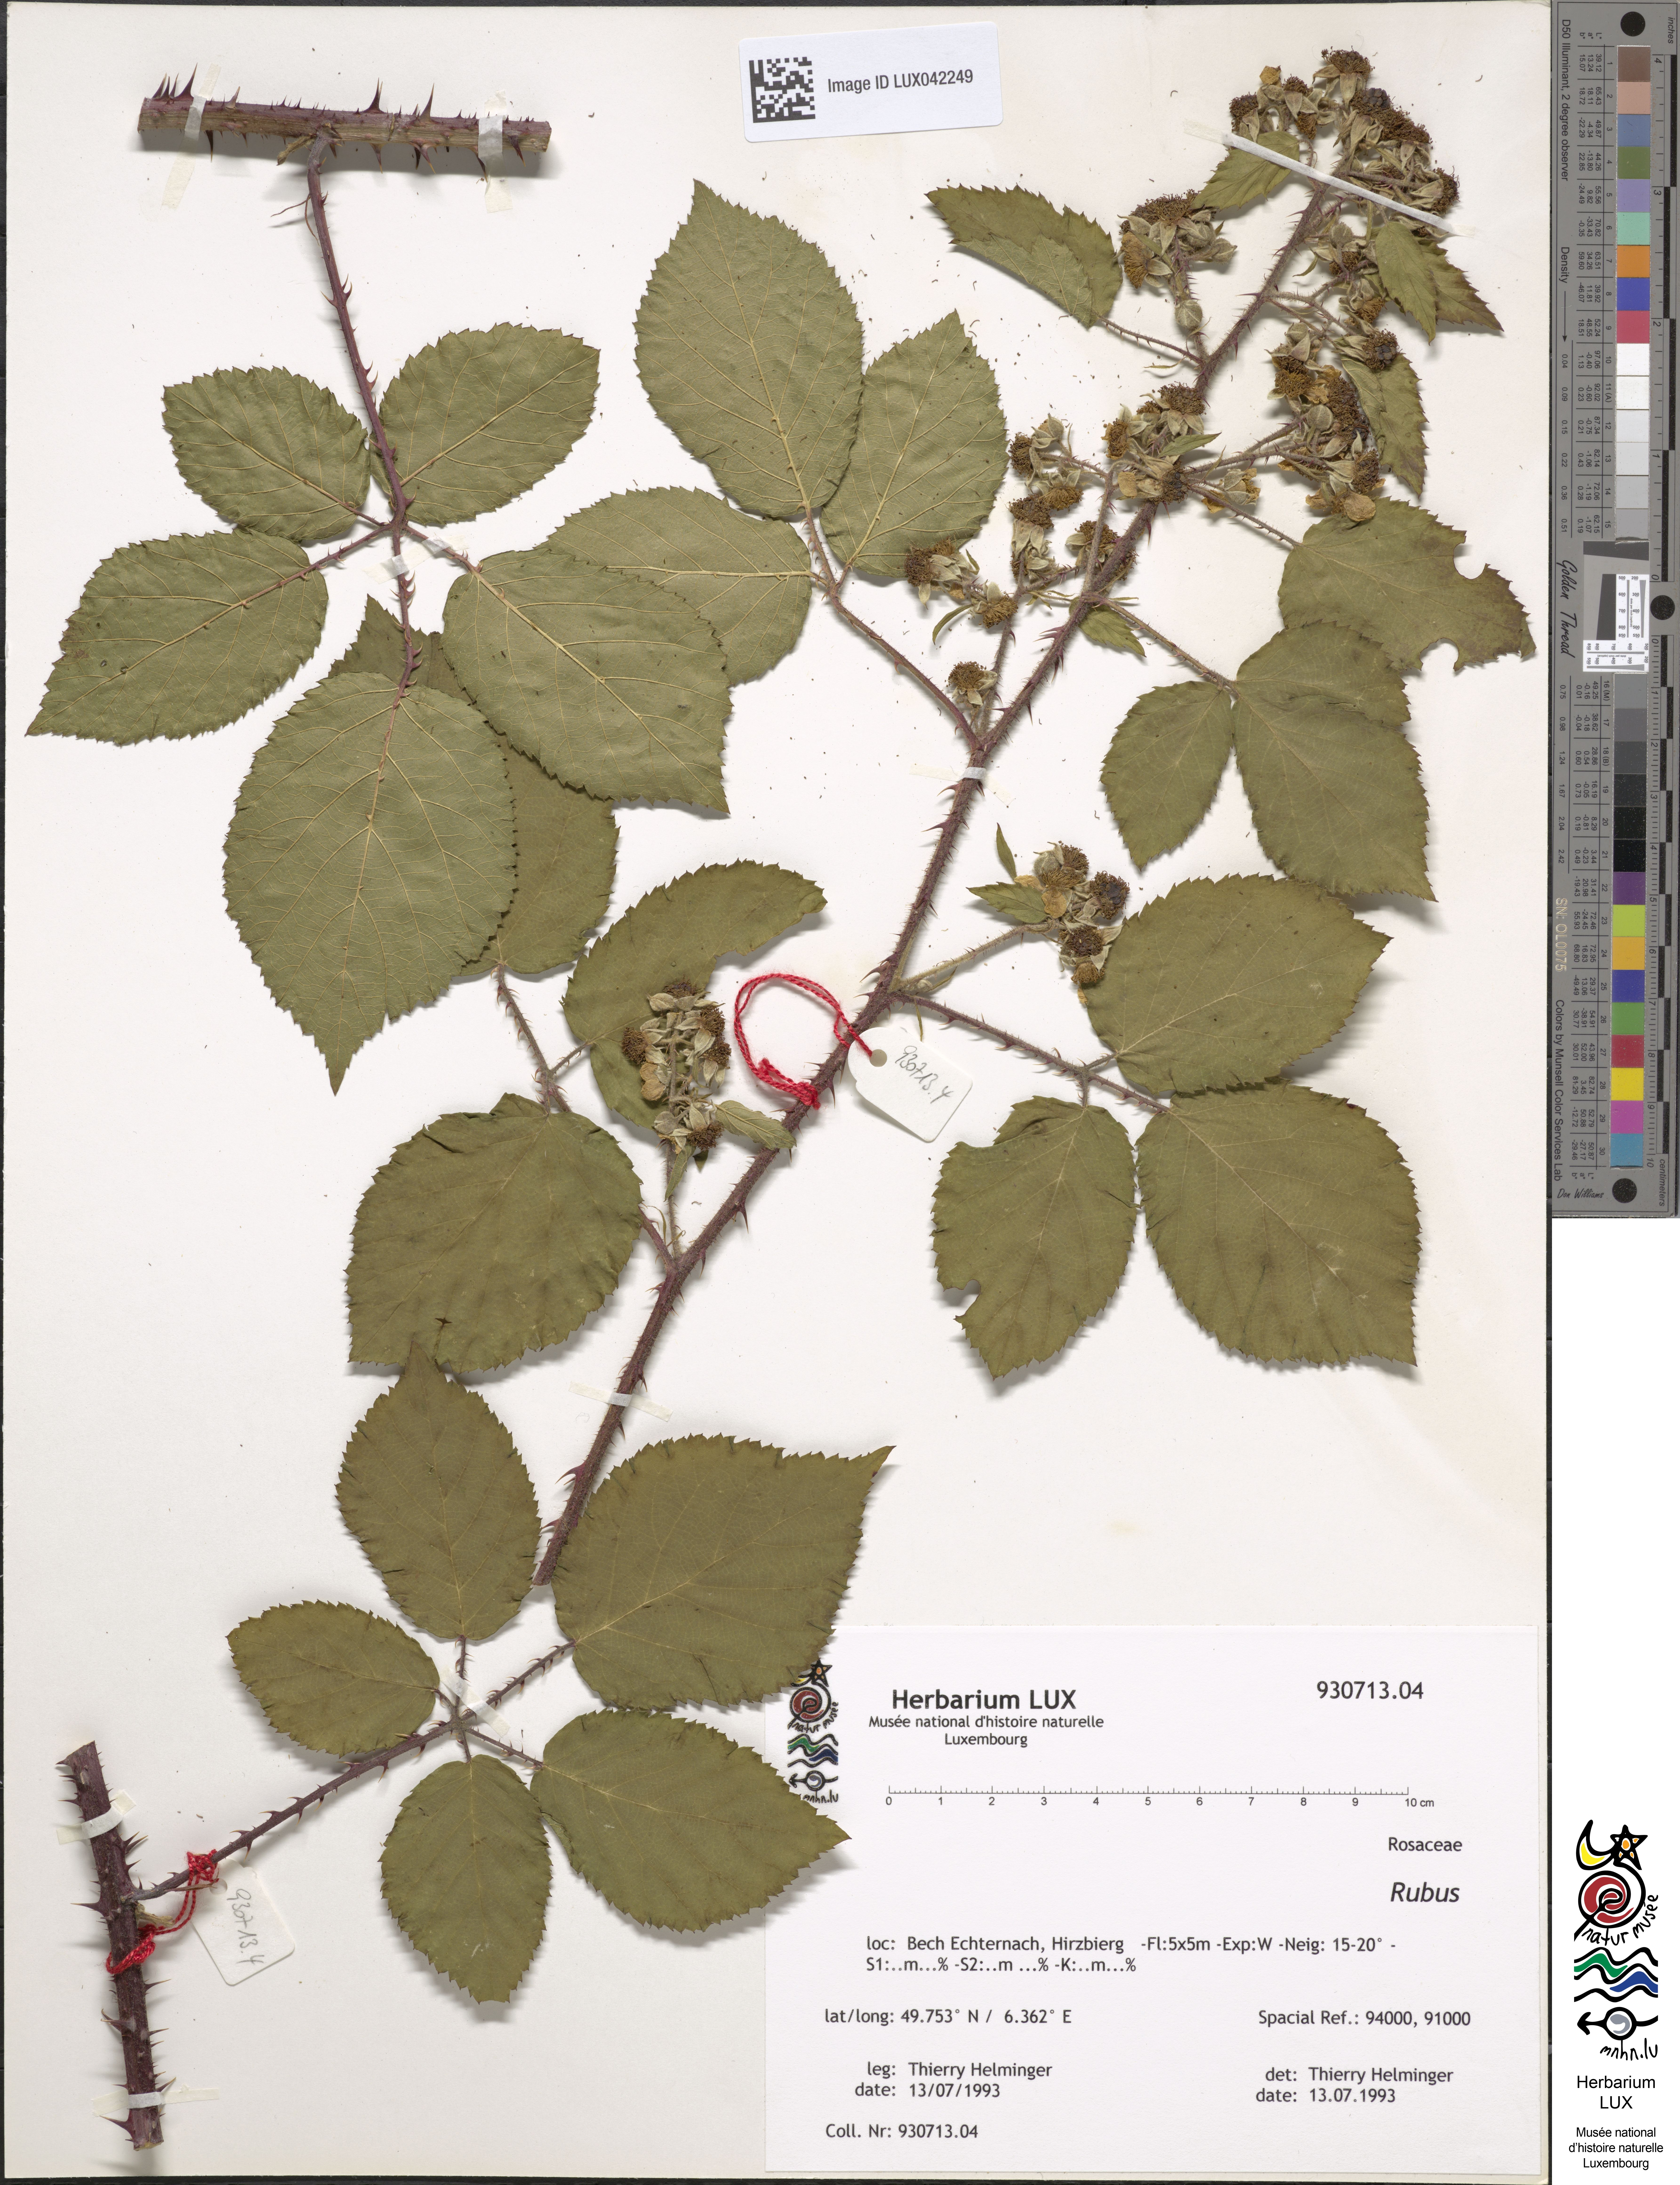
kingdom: Plantae
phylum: Tracheophyta
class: Magnoliopsida
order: Rosales
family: Rosaceae
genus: Rubus
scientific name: Rubus
